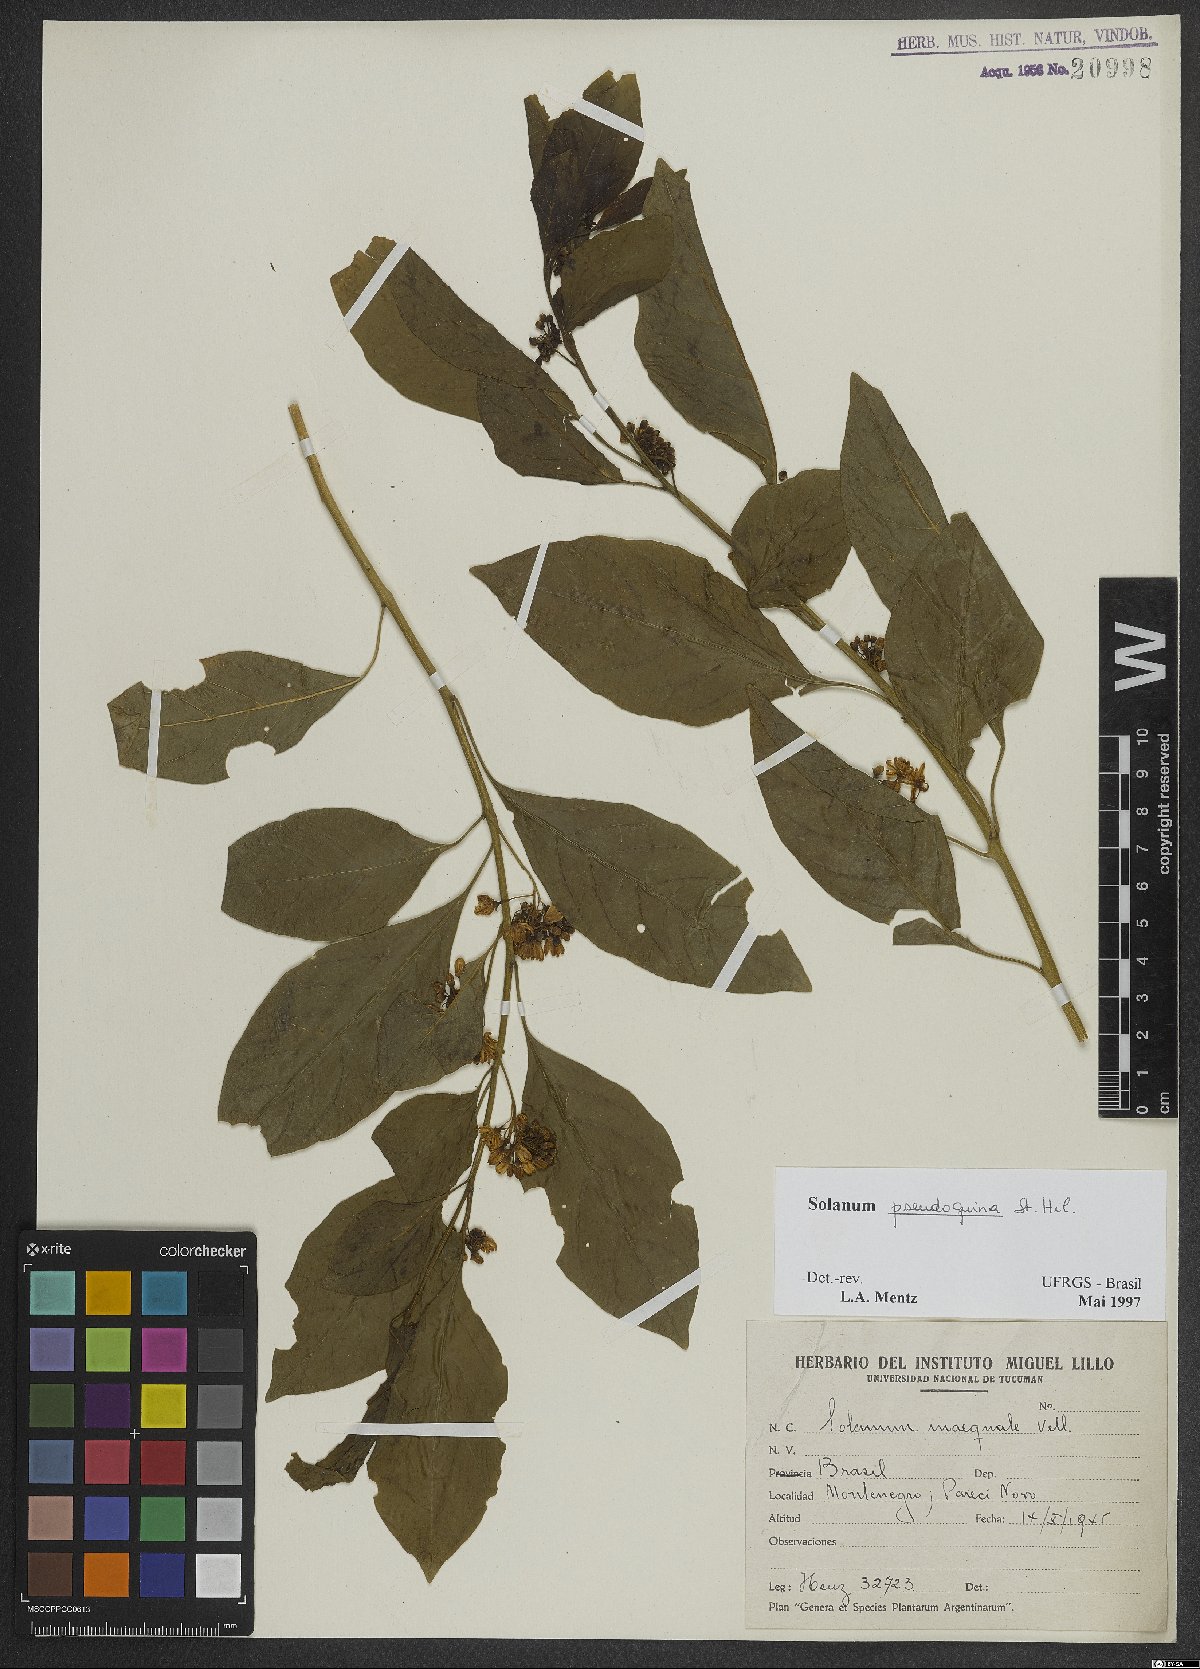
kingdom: Plantae
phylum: Tracheophyta
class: Magnoliopsida
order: Solanales
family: Solanaceae
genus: Solanum
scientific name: Solanum pseudoquina
